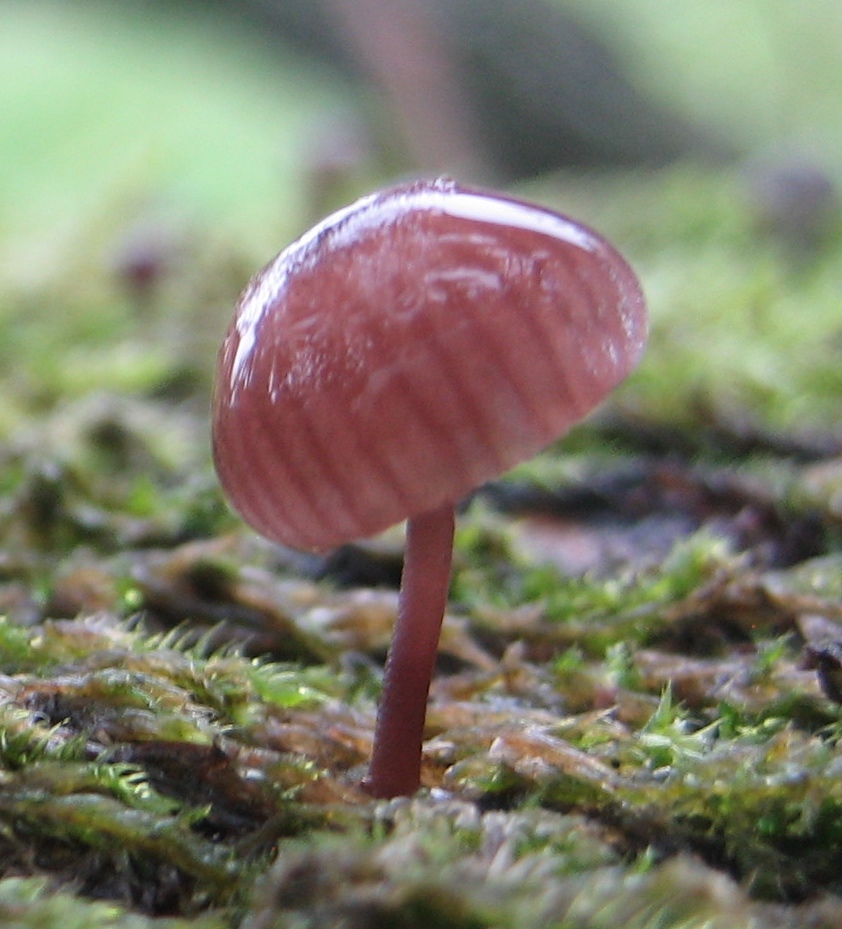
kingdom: Fungi
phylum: Basidiomycota
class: Agaricomycetes
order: Agaricales
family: Mycenaceae
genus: Mycena
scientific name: Mycena meliigena
